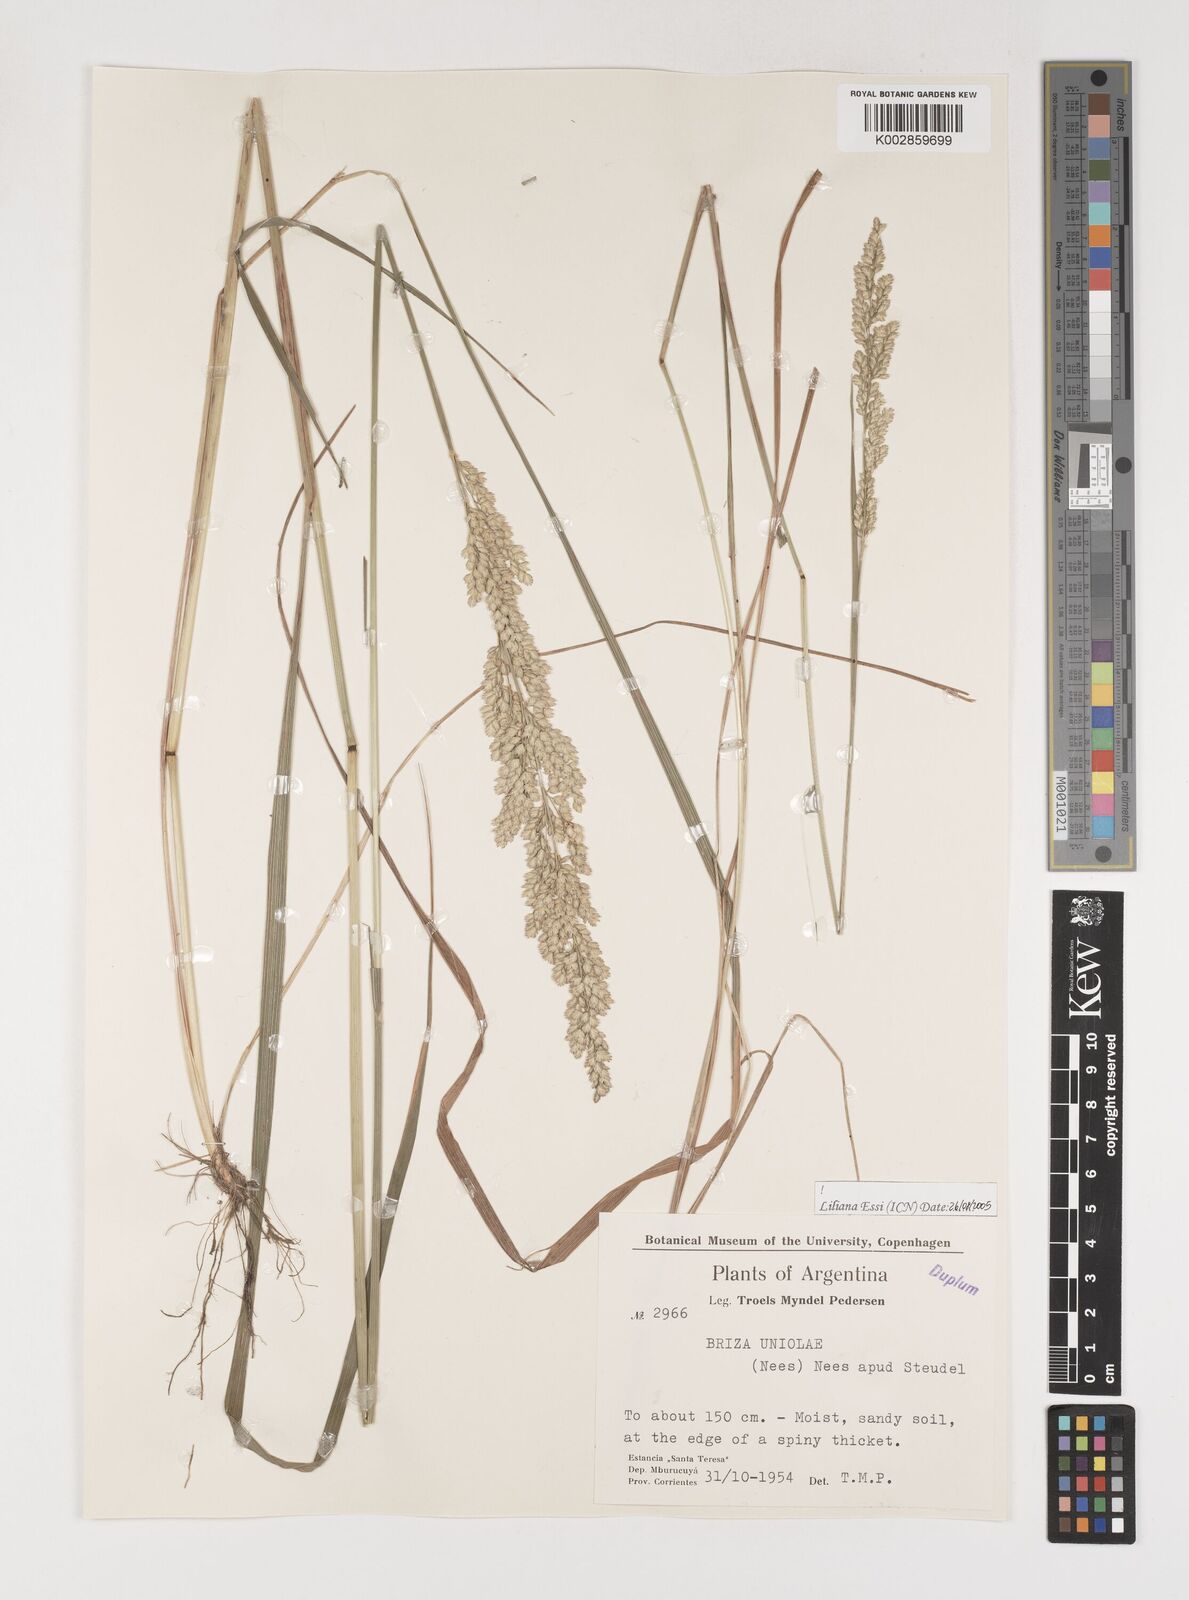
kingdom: Plantae
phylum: Tracheophyta
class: Liliopsida
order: Poales
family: Poaceae
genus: Poidium
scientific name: Poidium uniolae
